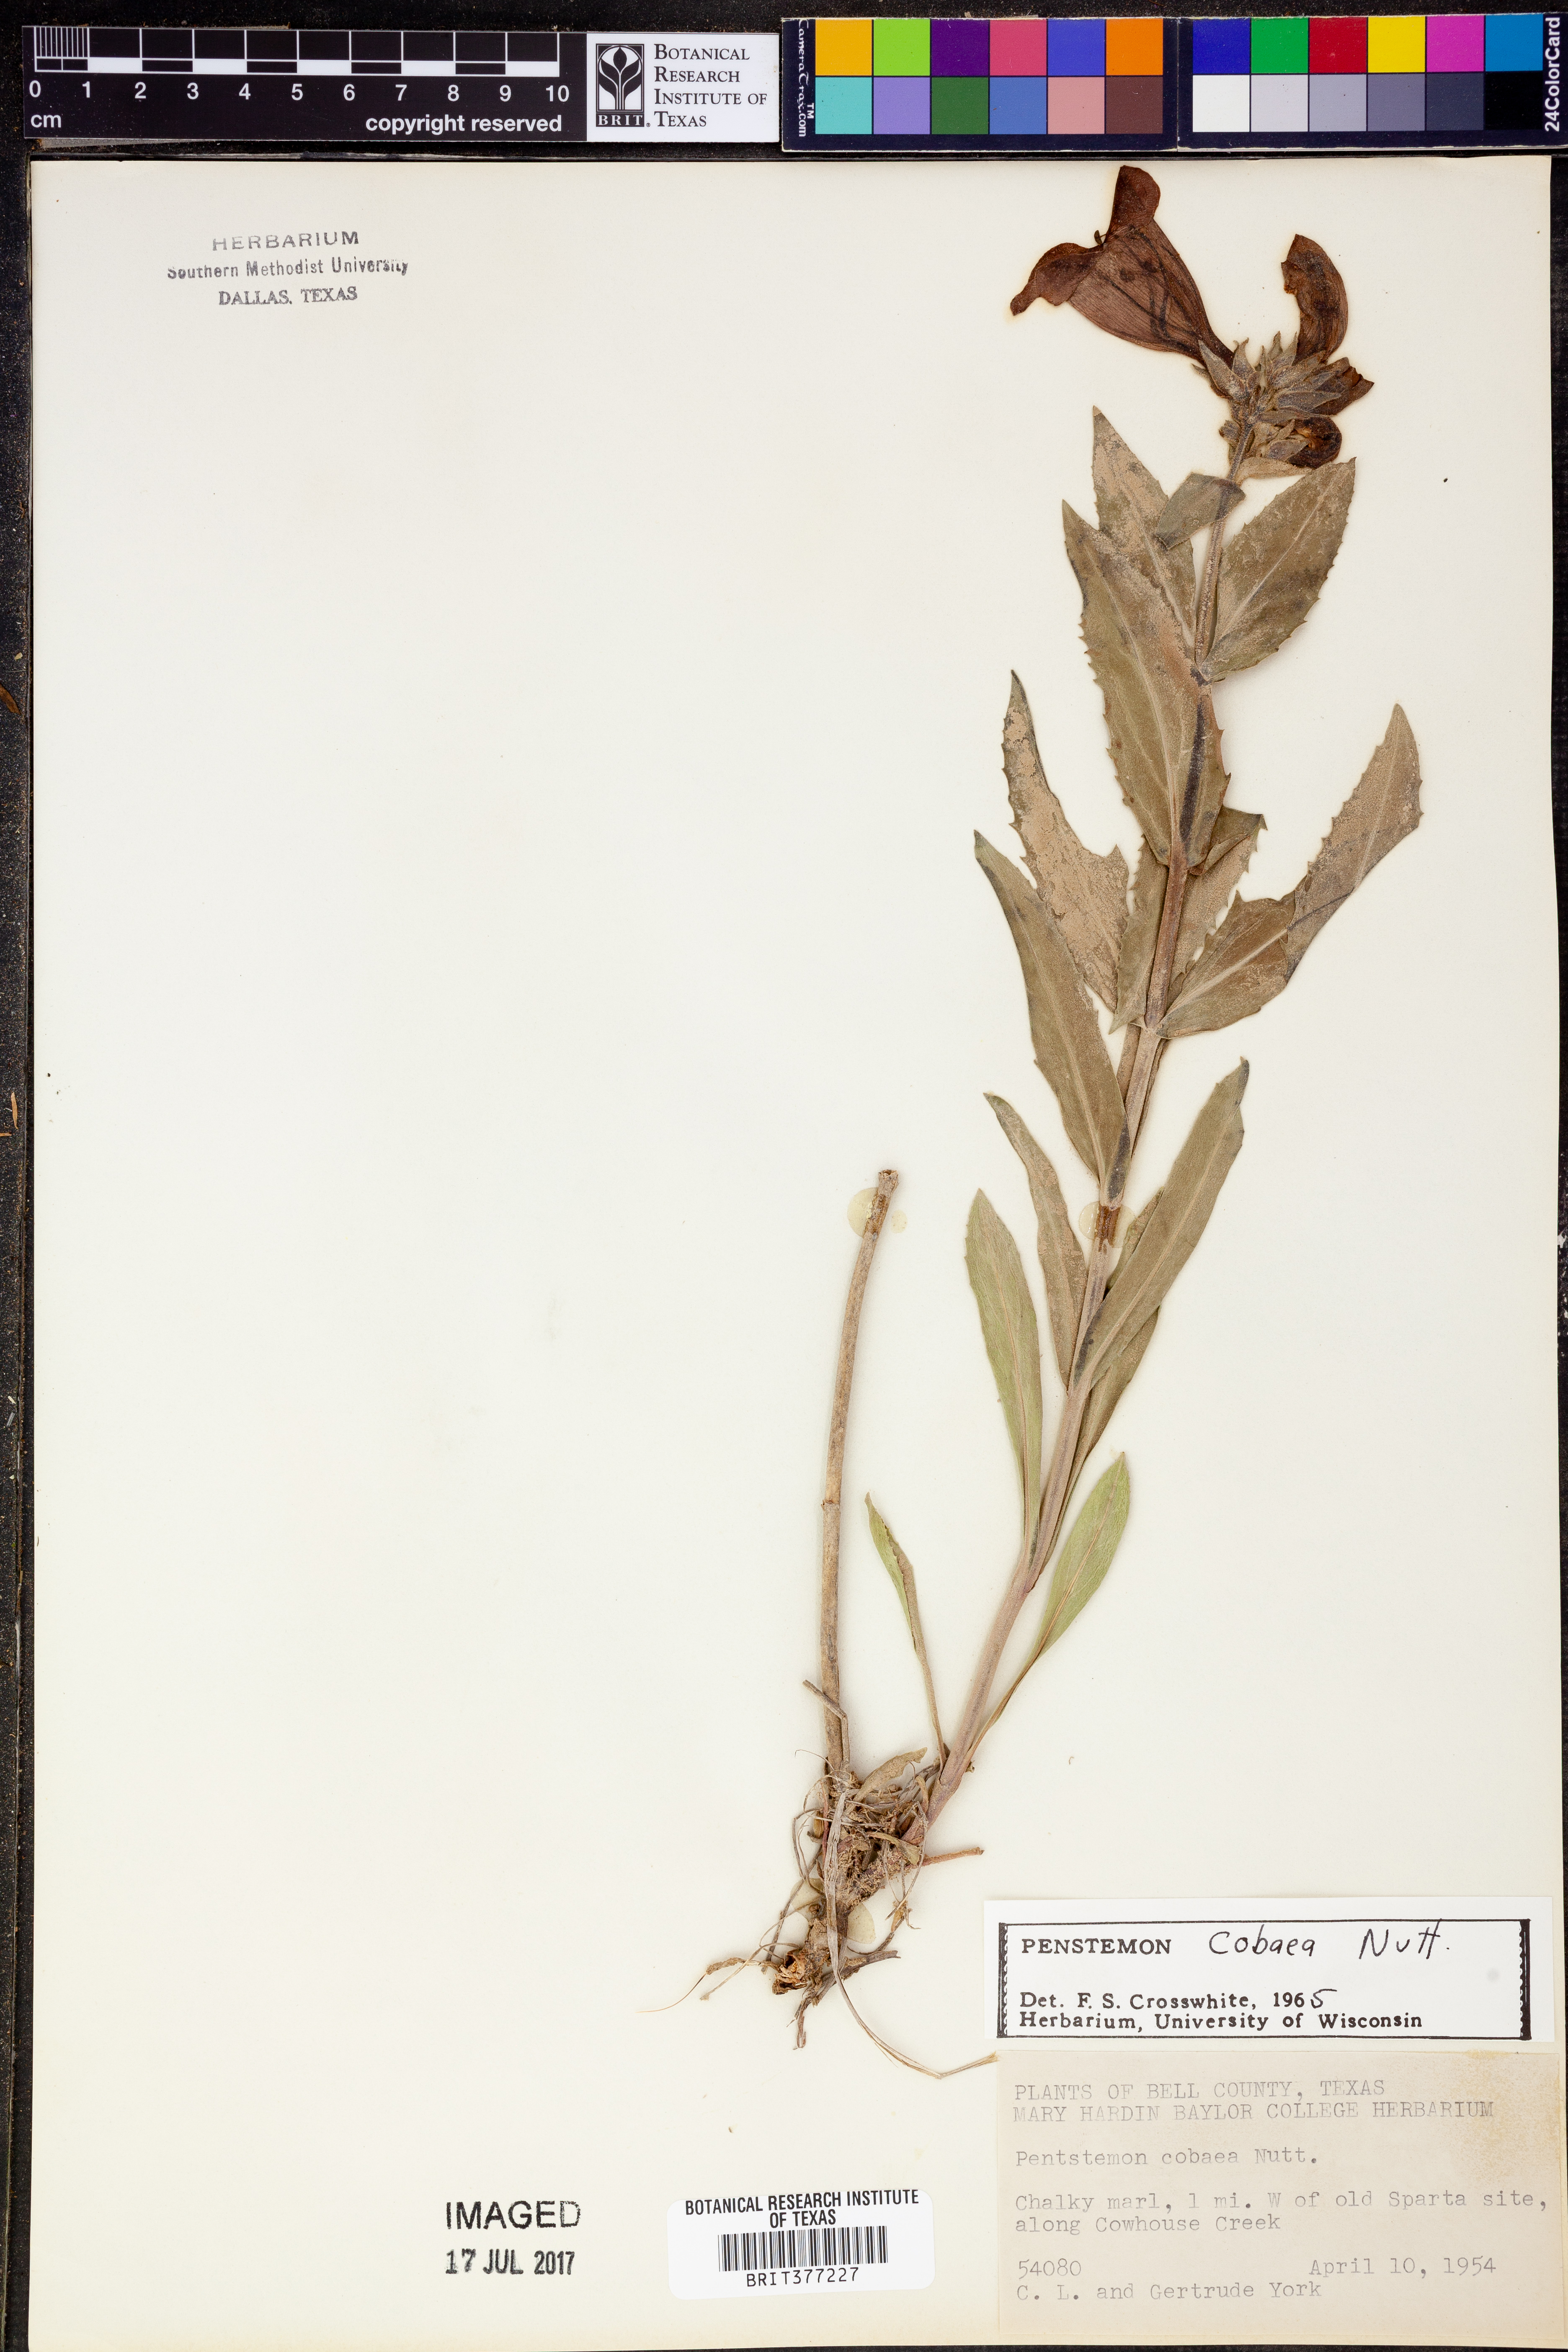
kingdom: Plantae
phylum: Tracheophyta
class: Magnoliopsida
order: Lamiales
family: Plantaginaceae
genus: Penstemon
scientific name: Penstemon cobaea
